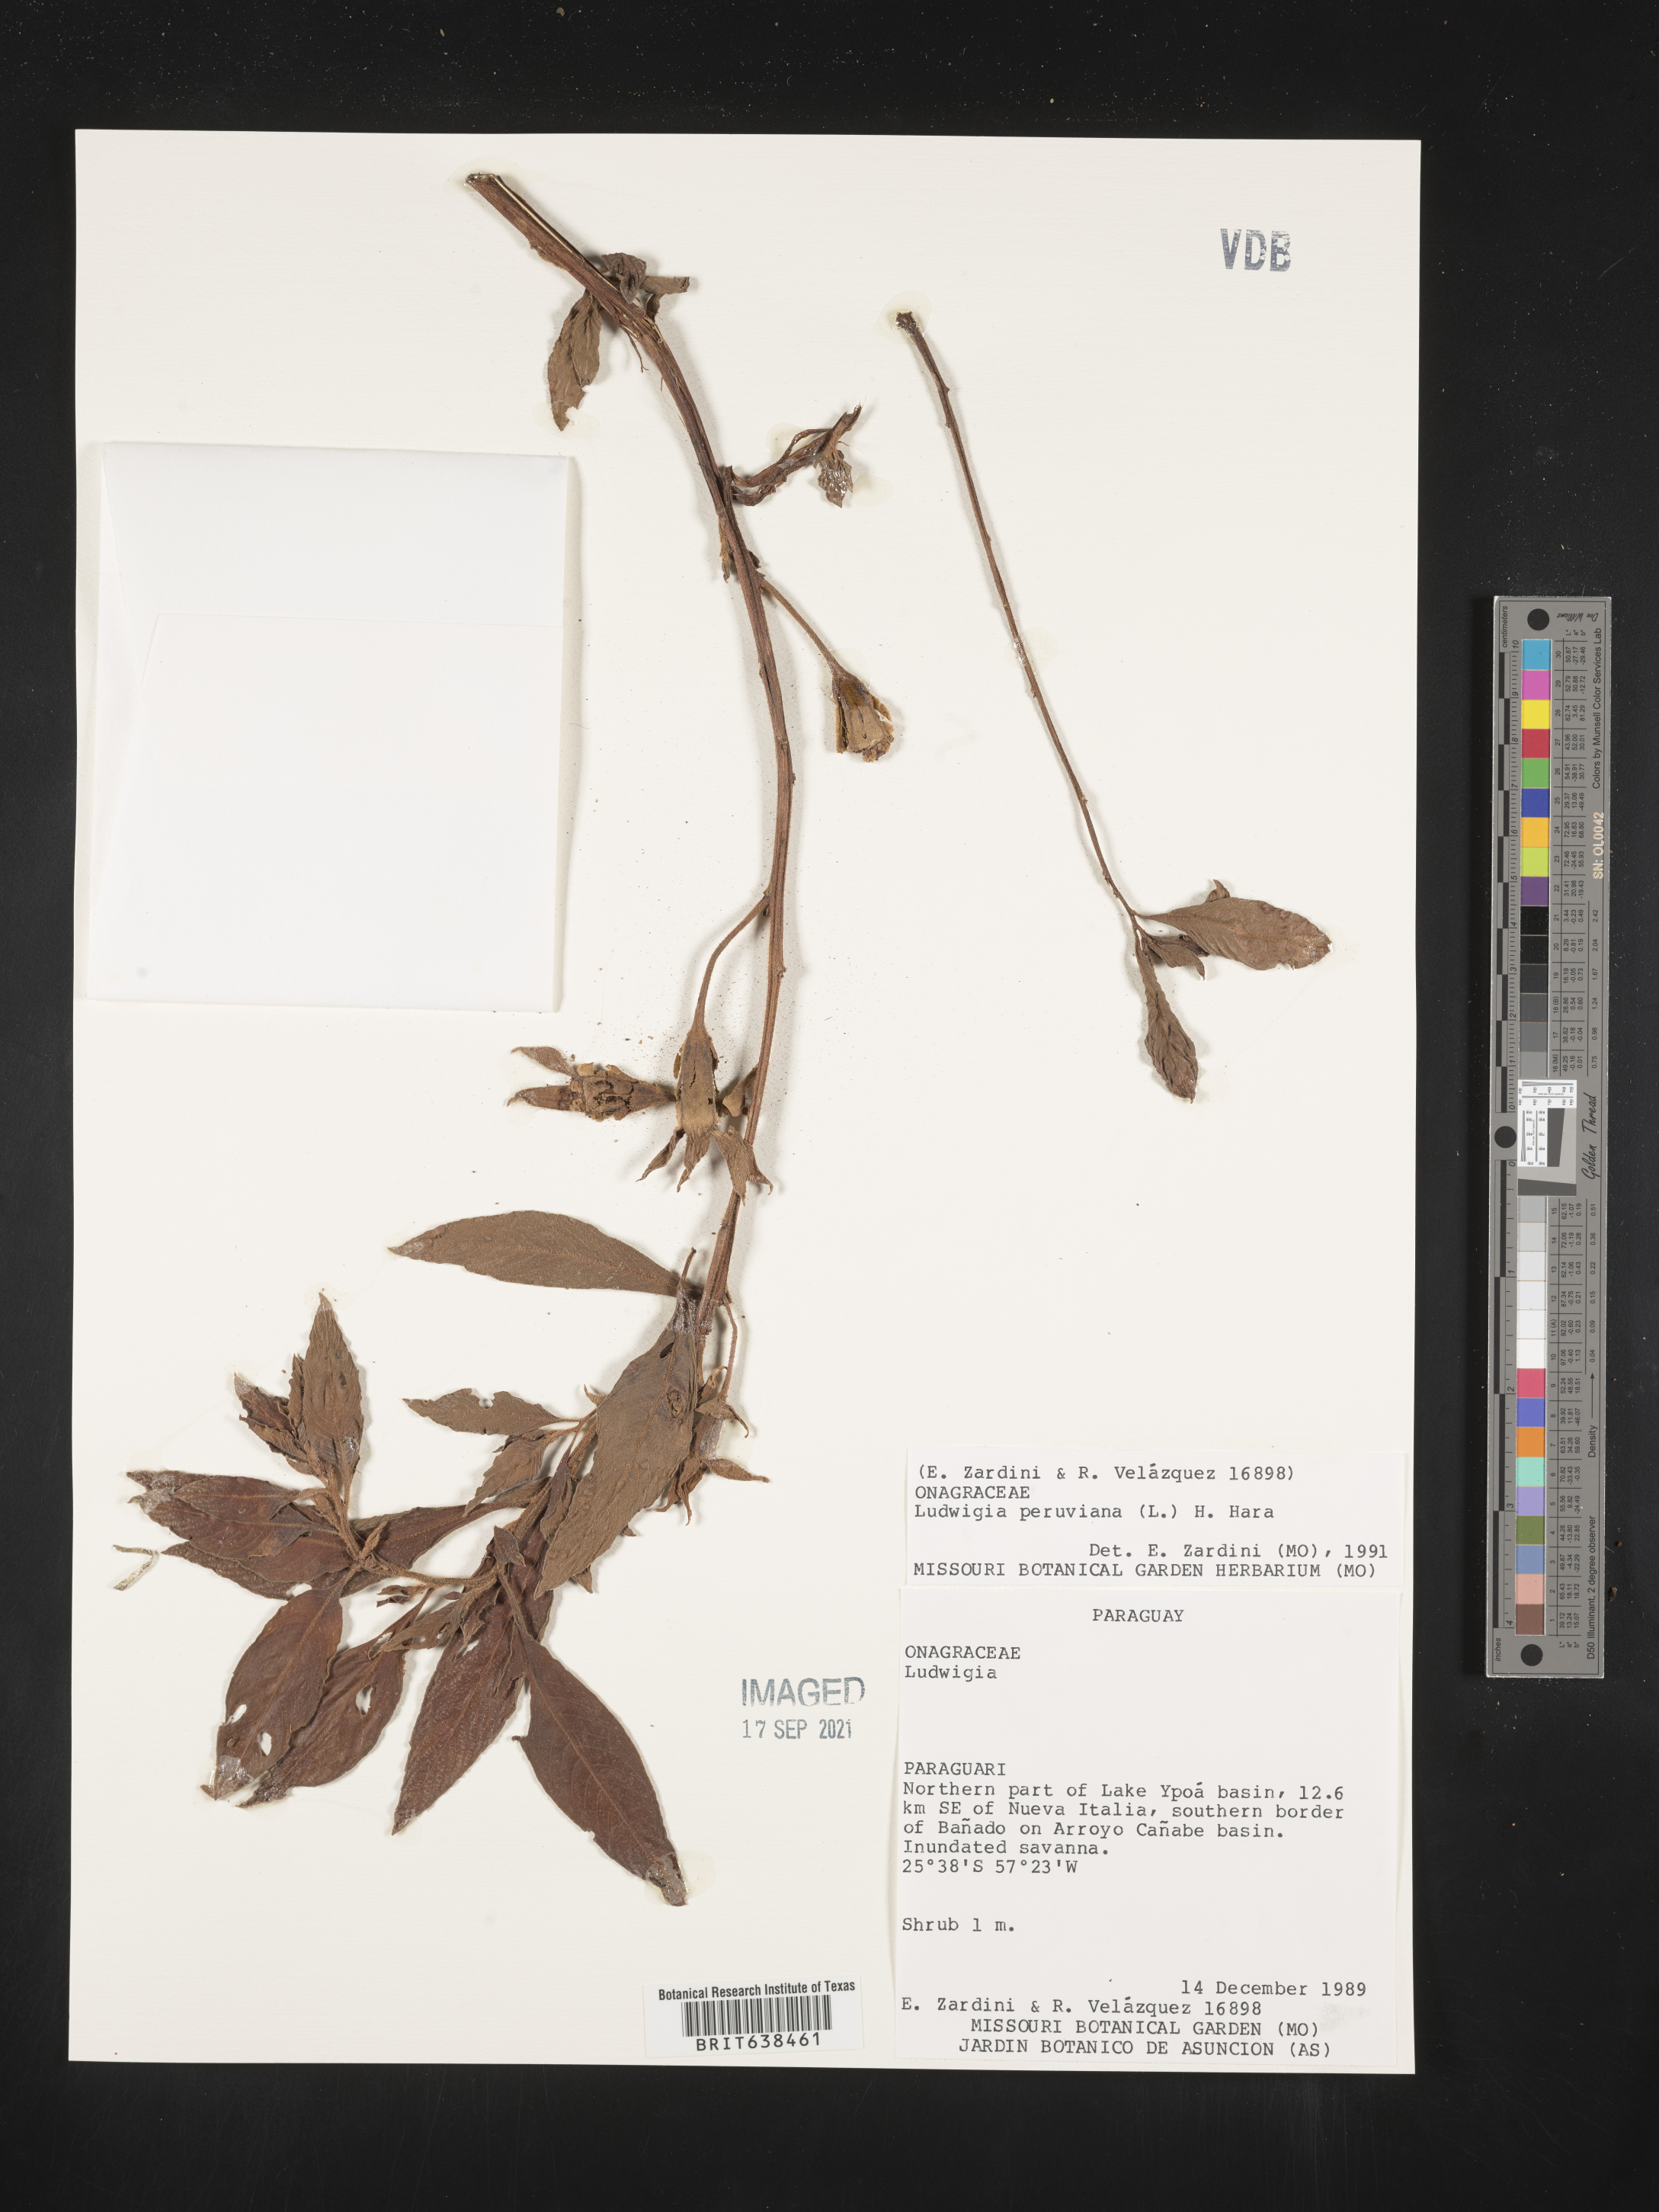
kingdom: Plantae
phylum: Tracheophyta
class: Magnoliopsida
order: Myrtales
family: Onagraceae
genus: Ludwigia
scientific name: Ludwigia
